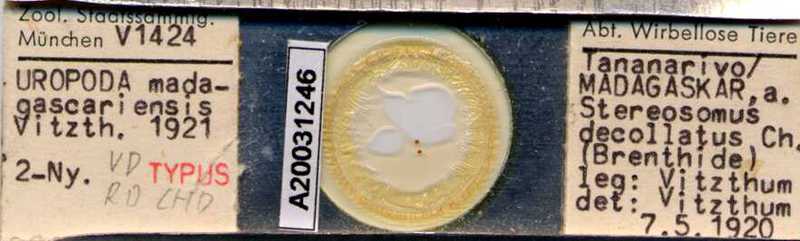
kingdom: Animalia
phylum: Arthropoda
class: Arachnida
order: Mesostigmata
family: Uropodidae
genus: Uropoda
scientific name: Uropoda
